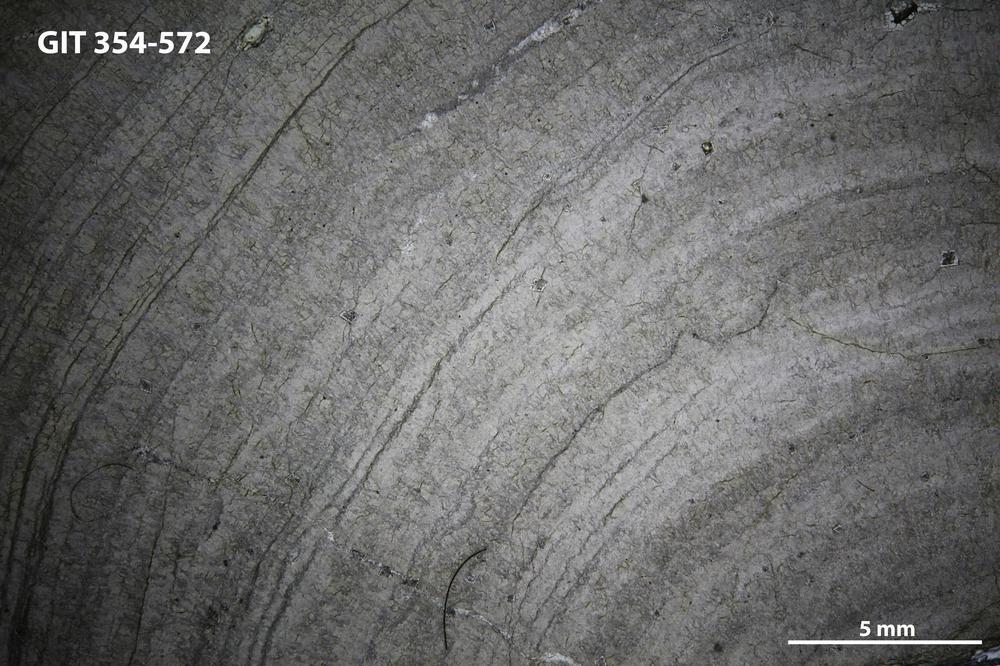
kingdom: Animalia
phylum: Porifera
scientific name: Porifera
